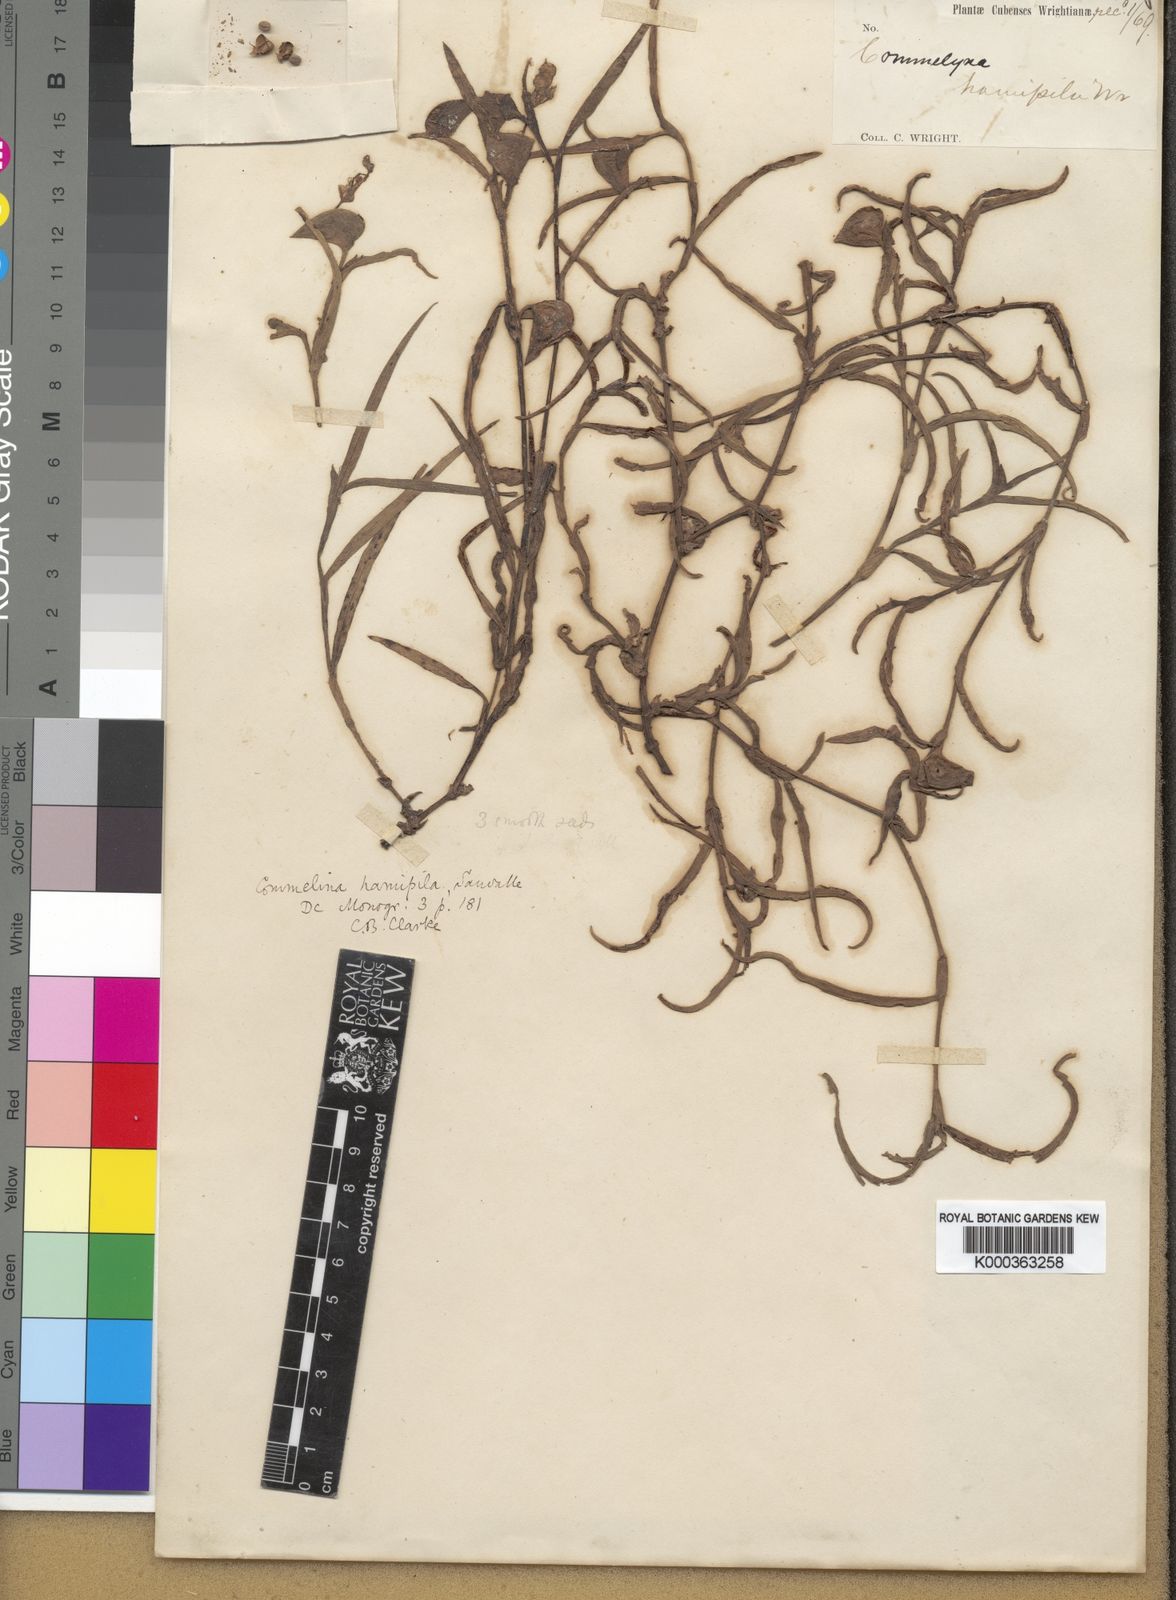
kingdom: Plantae
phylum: Tracheophyta
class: Liliopsida
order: Commelinales
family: Commelinaceae
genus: Commelina
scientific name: Commelina erecta
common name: Blousel blommetjie
